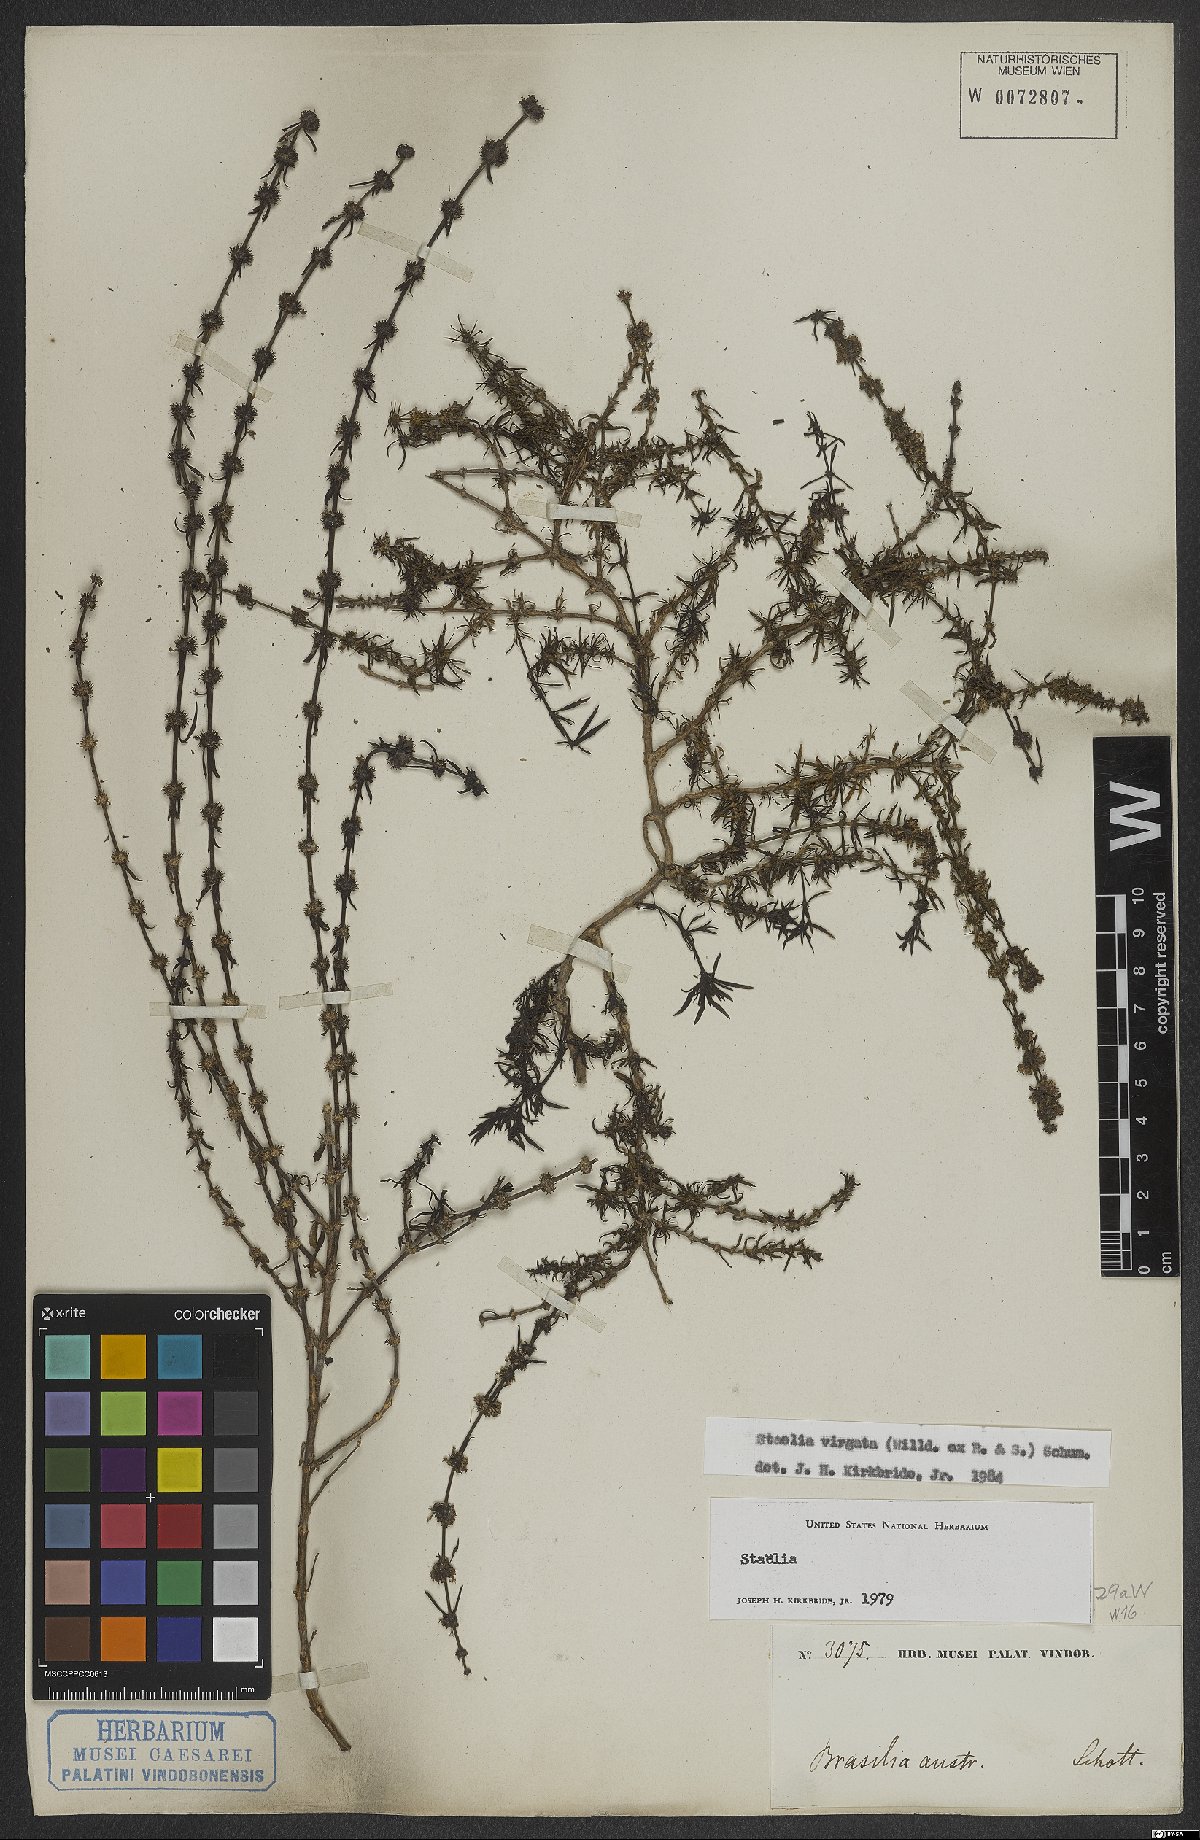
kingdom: Plantae
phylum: Tracheophyta
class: Magnoliopsida
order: Gentianales
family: Rubiaceae
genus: Staelia
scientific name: Staelia virgata
